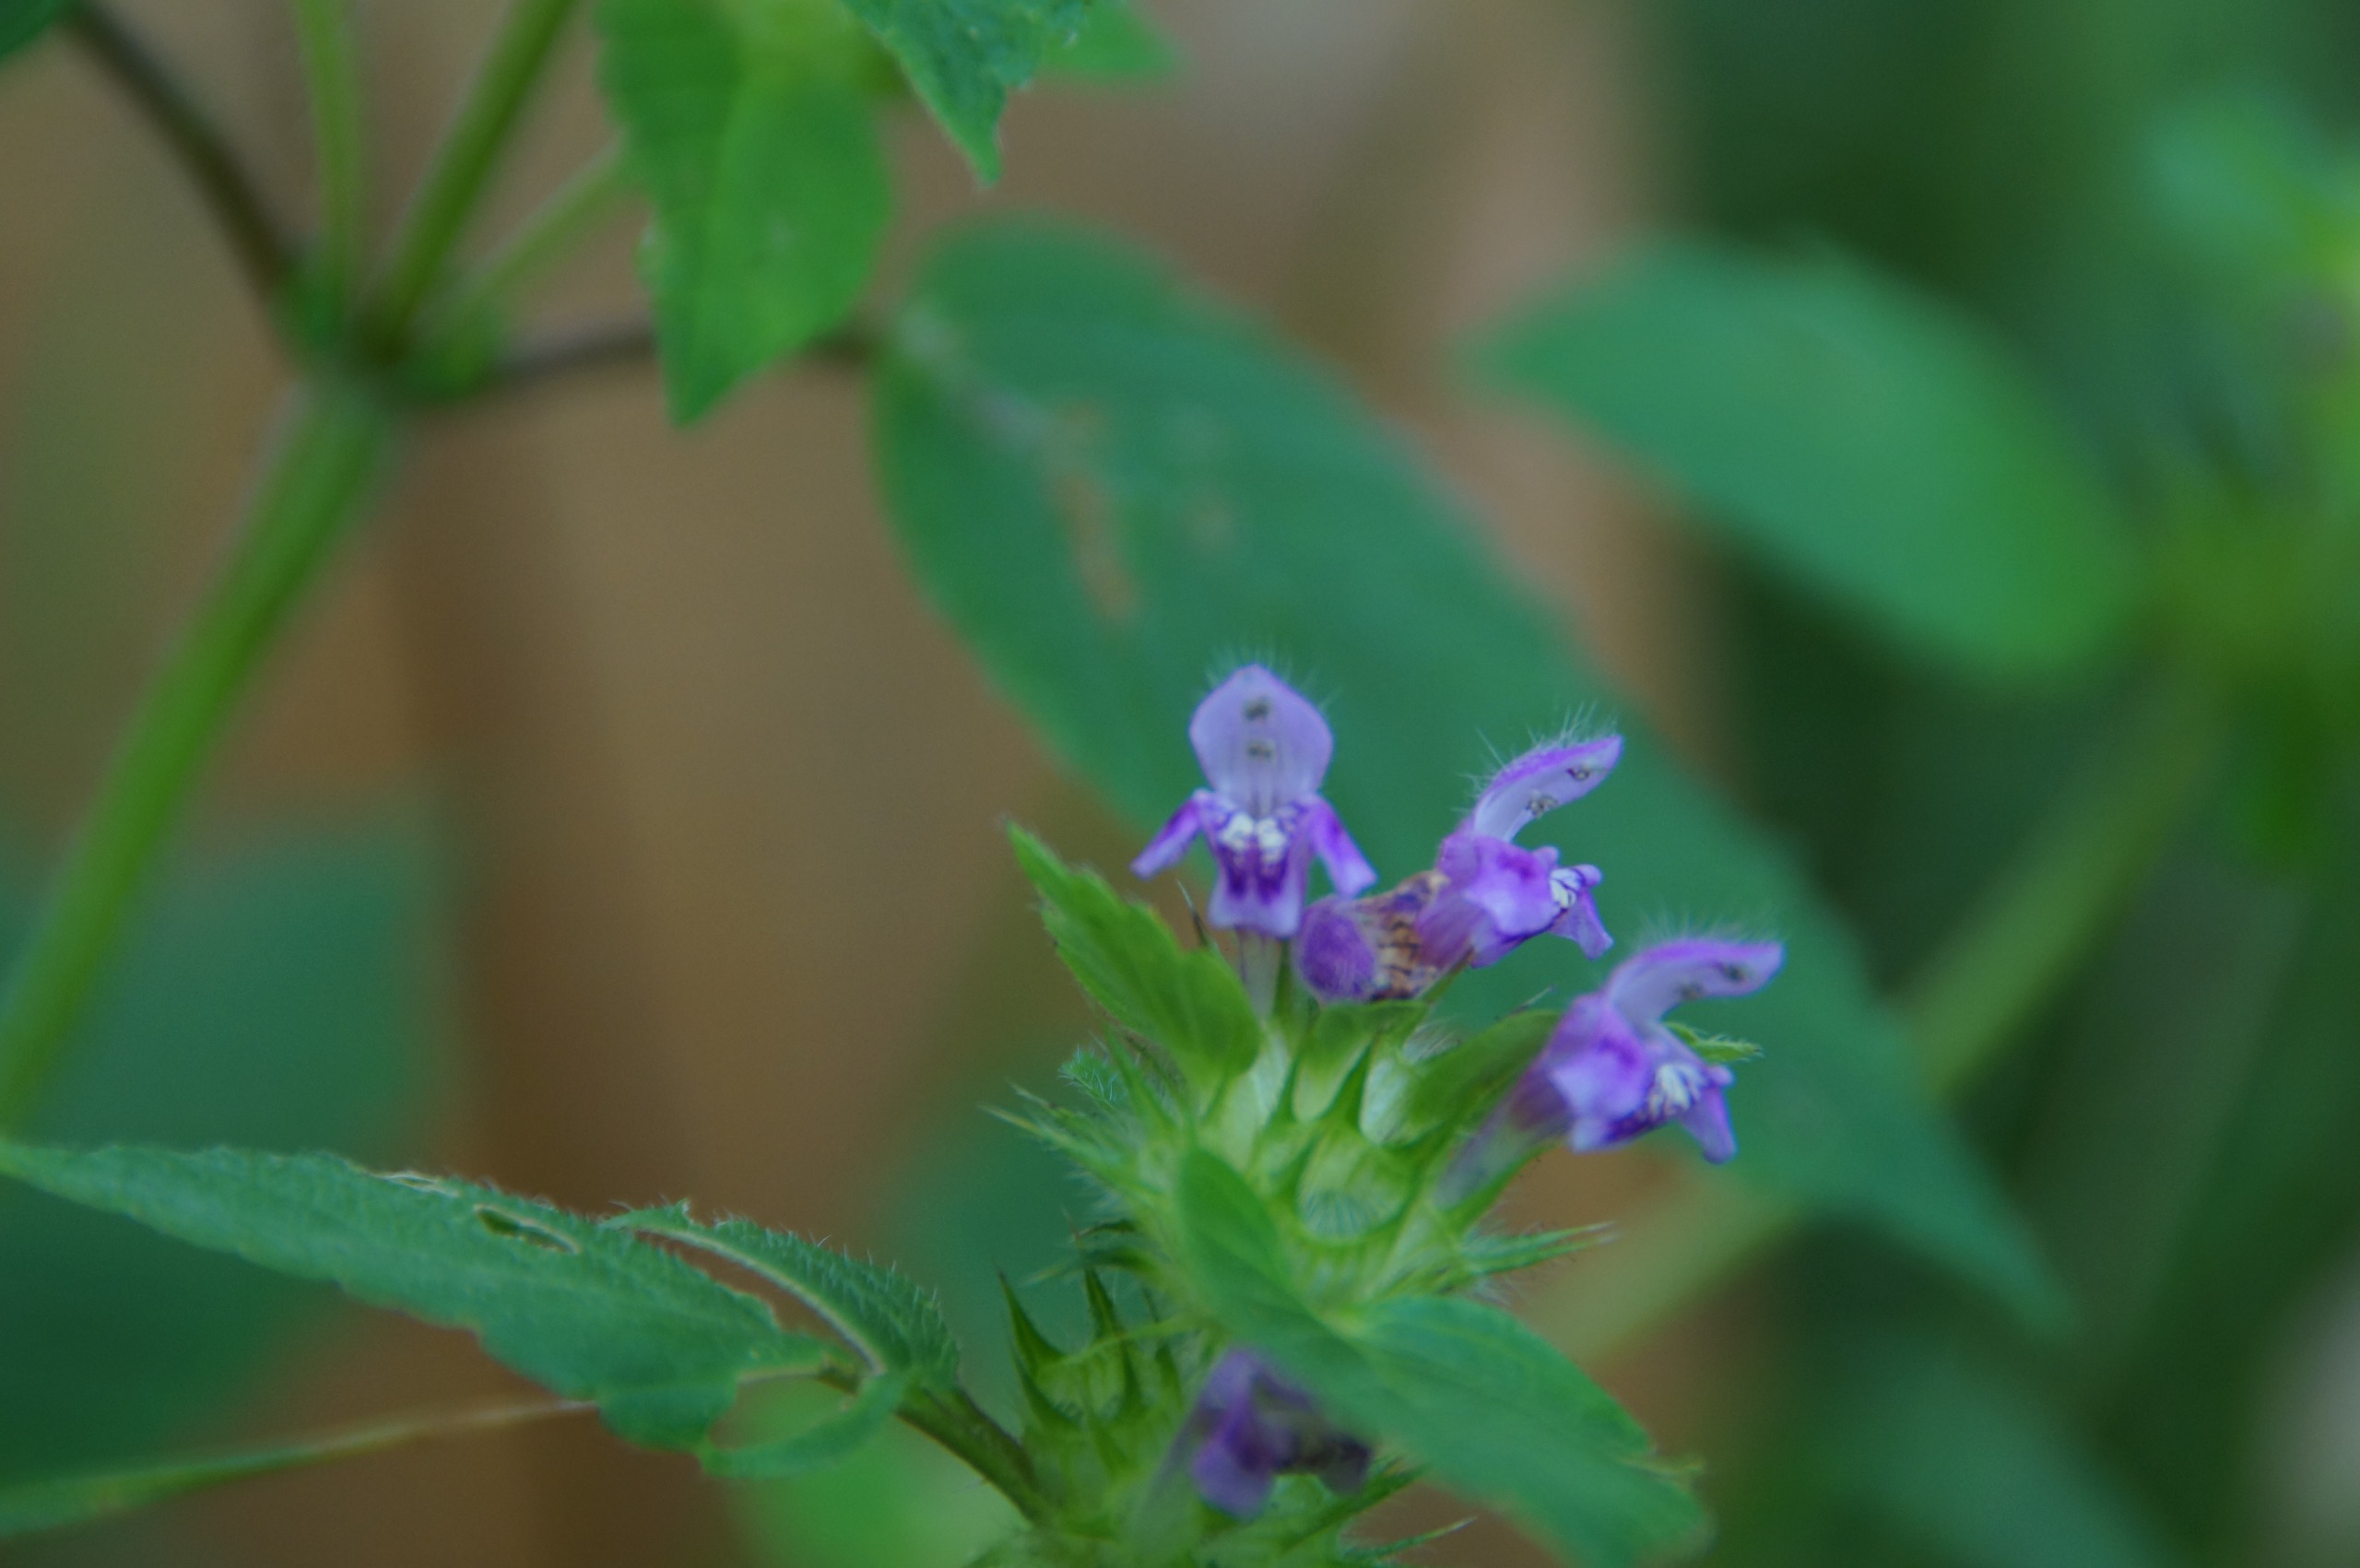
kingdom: Plantae
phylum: Tracheophyta
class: Magnoliopsida
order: Lamiales
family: Lamiaceae
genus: Galeopsis
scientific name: Galeopsis tetrahit
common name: Almindelig hanekro
